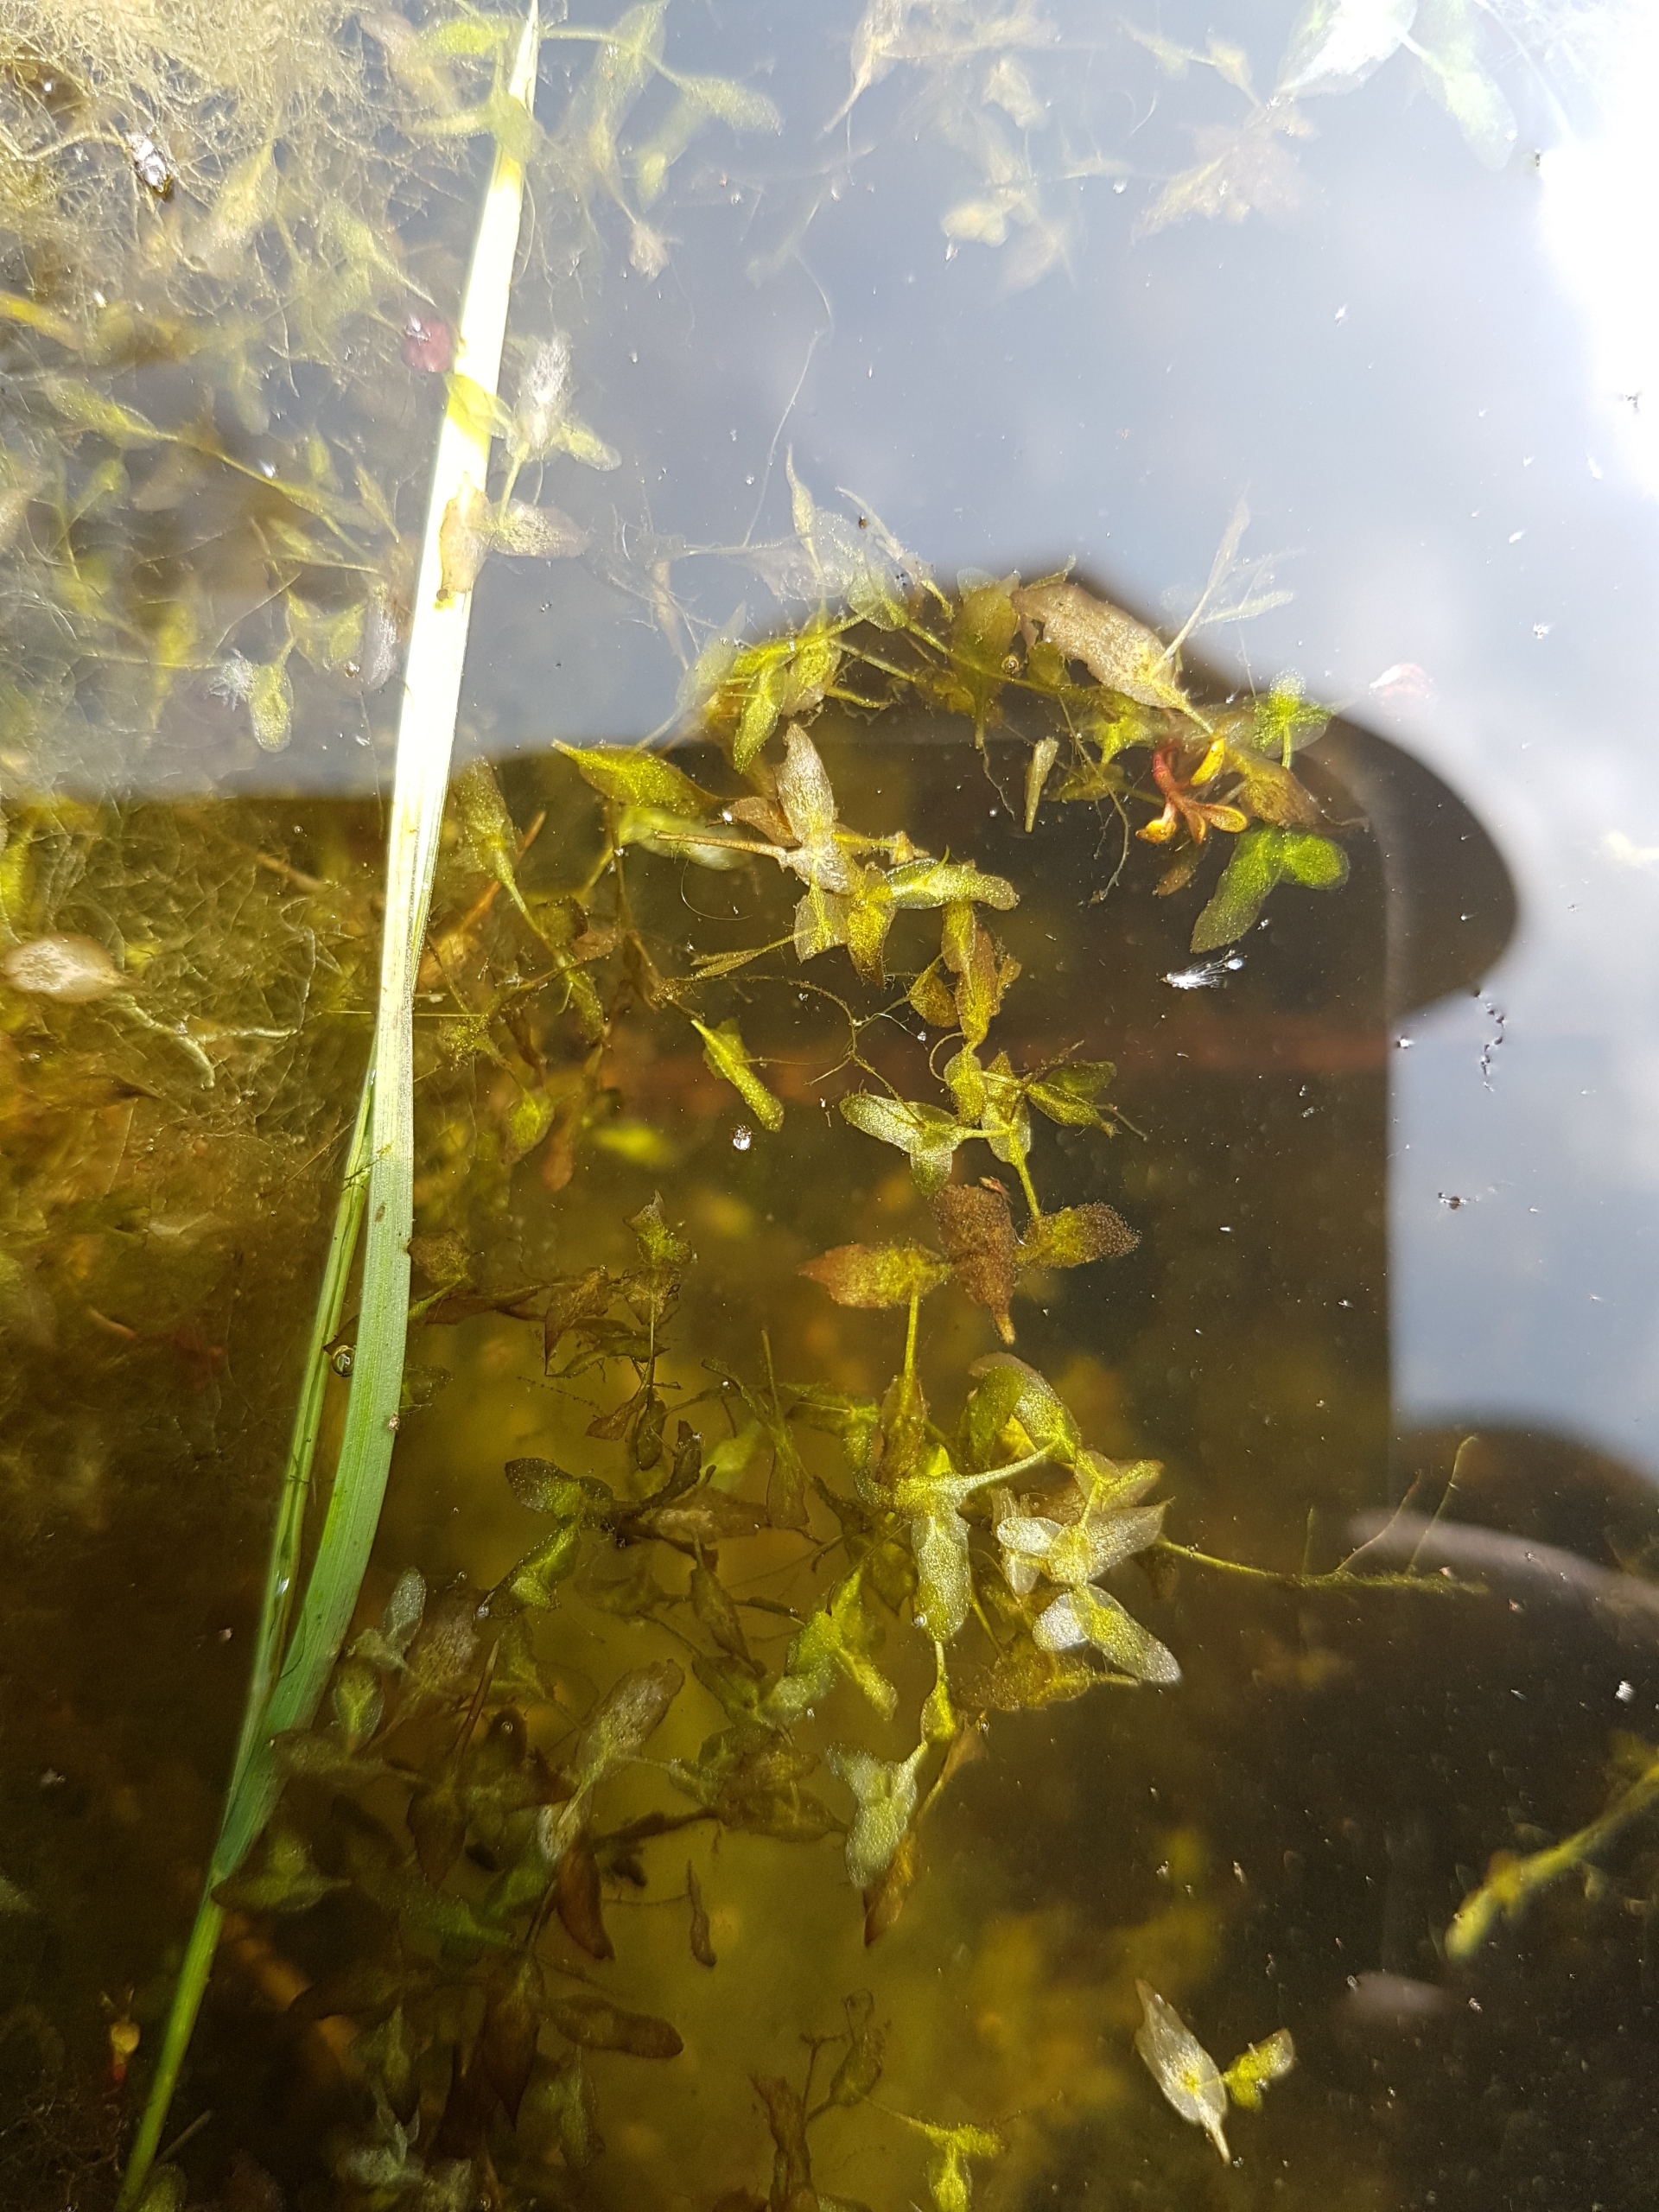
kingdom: Plantae
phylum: Tracheophyta
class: Liliopsida
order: Alismatales
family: Araceae
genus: Lemna
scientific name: Lemna trisulca
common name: Kors-andemad
